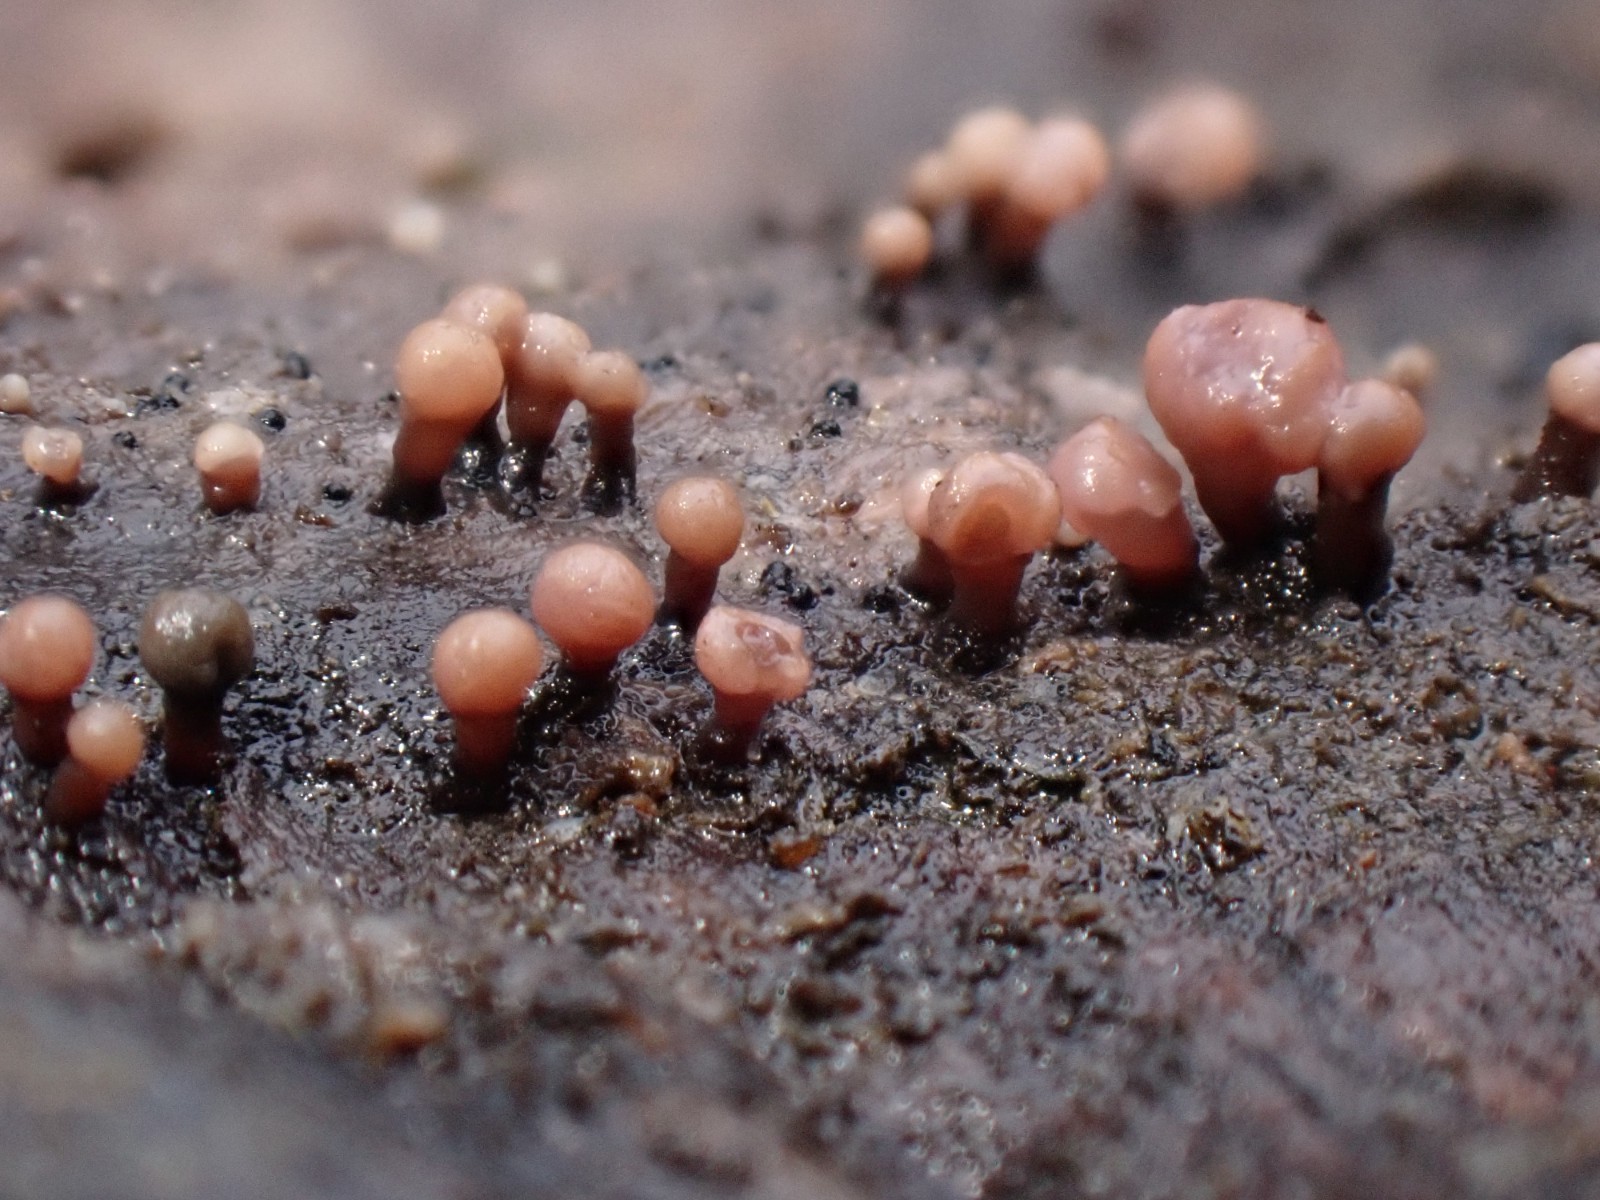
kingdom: Fungi
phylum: Ascomycota
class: Leotiomycetes
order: Helotiales
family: Gelatinodiscaceae
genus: Ascocoryne
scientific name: Ascocoryne albida
